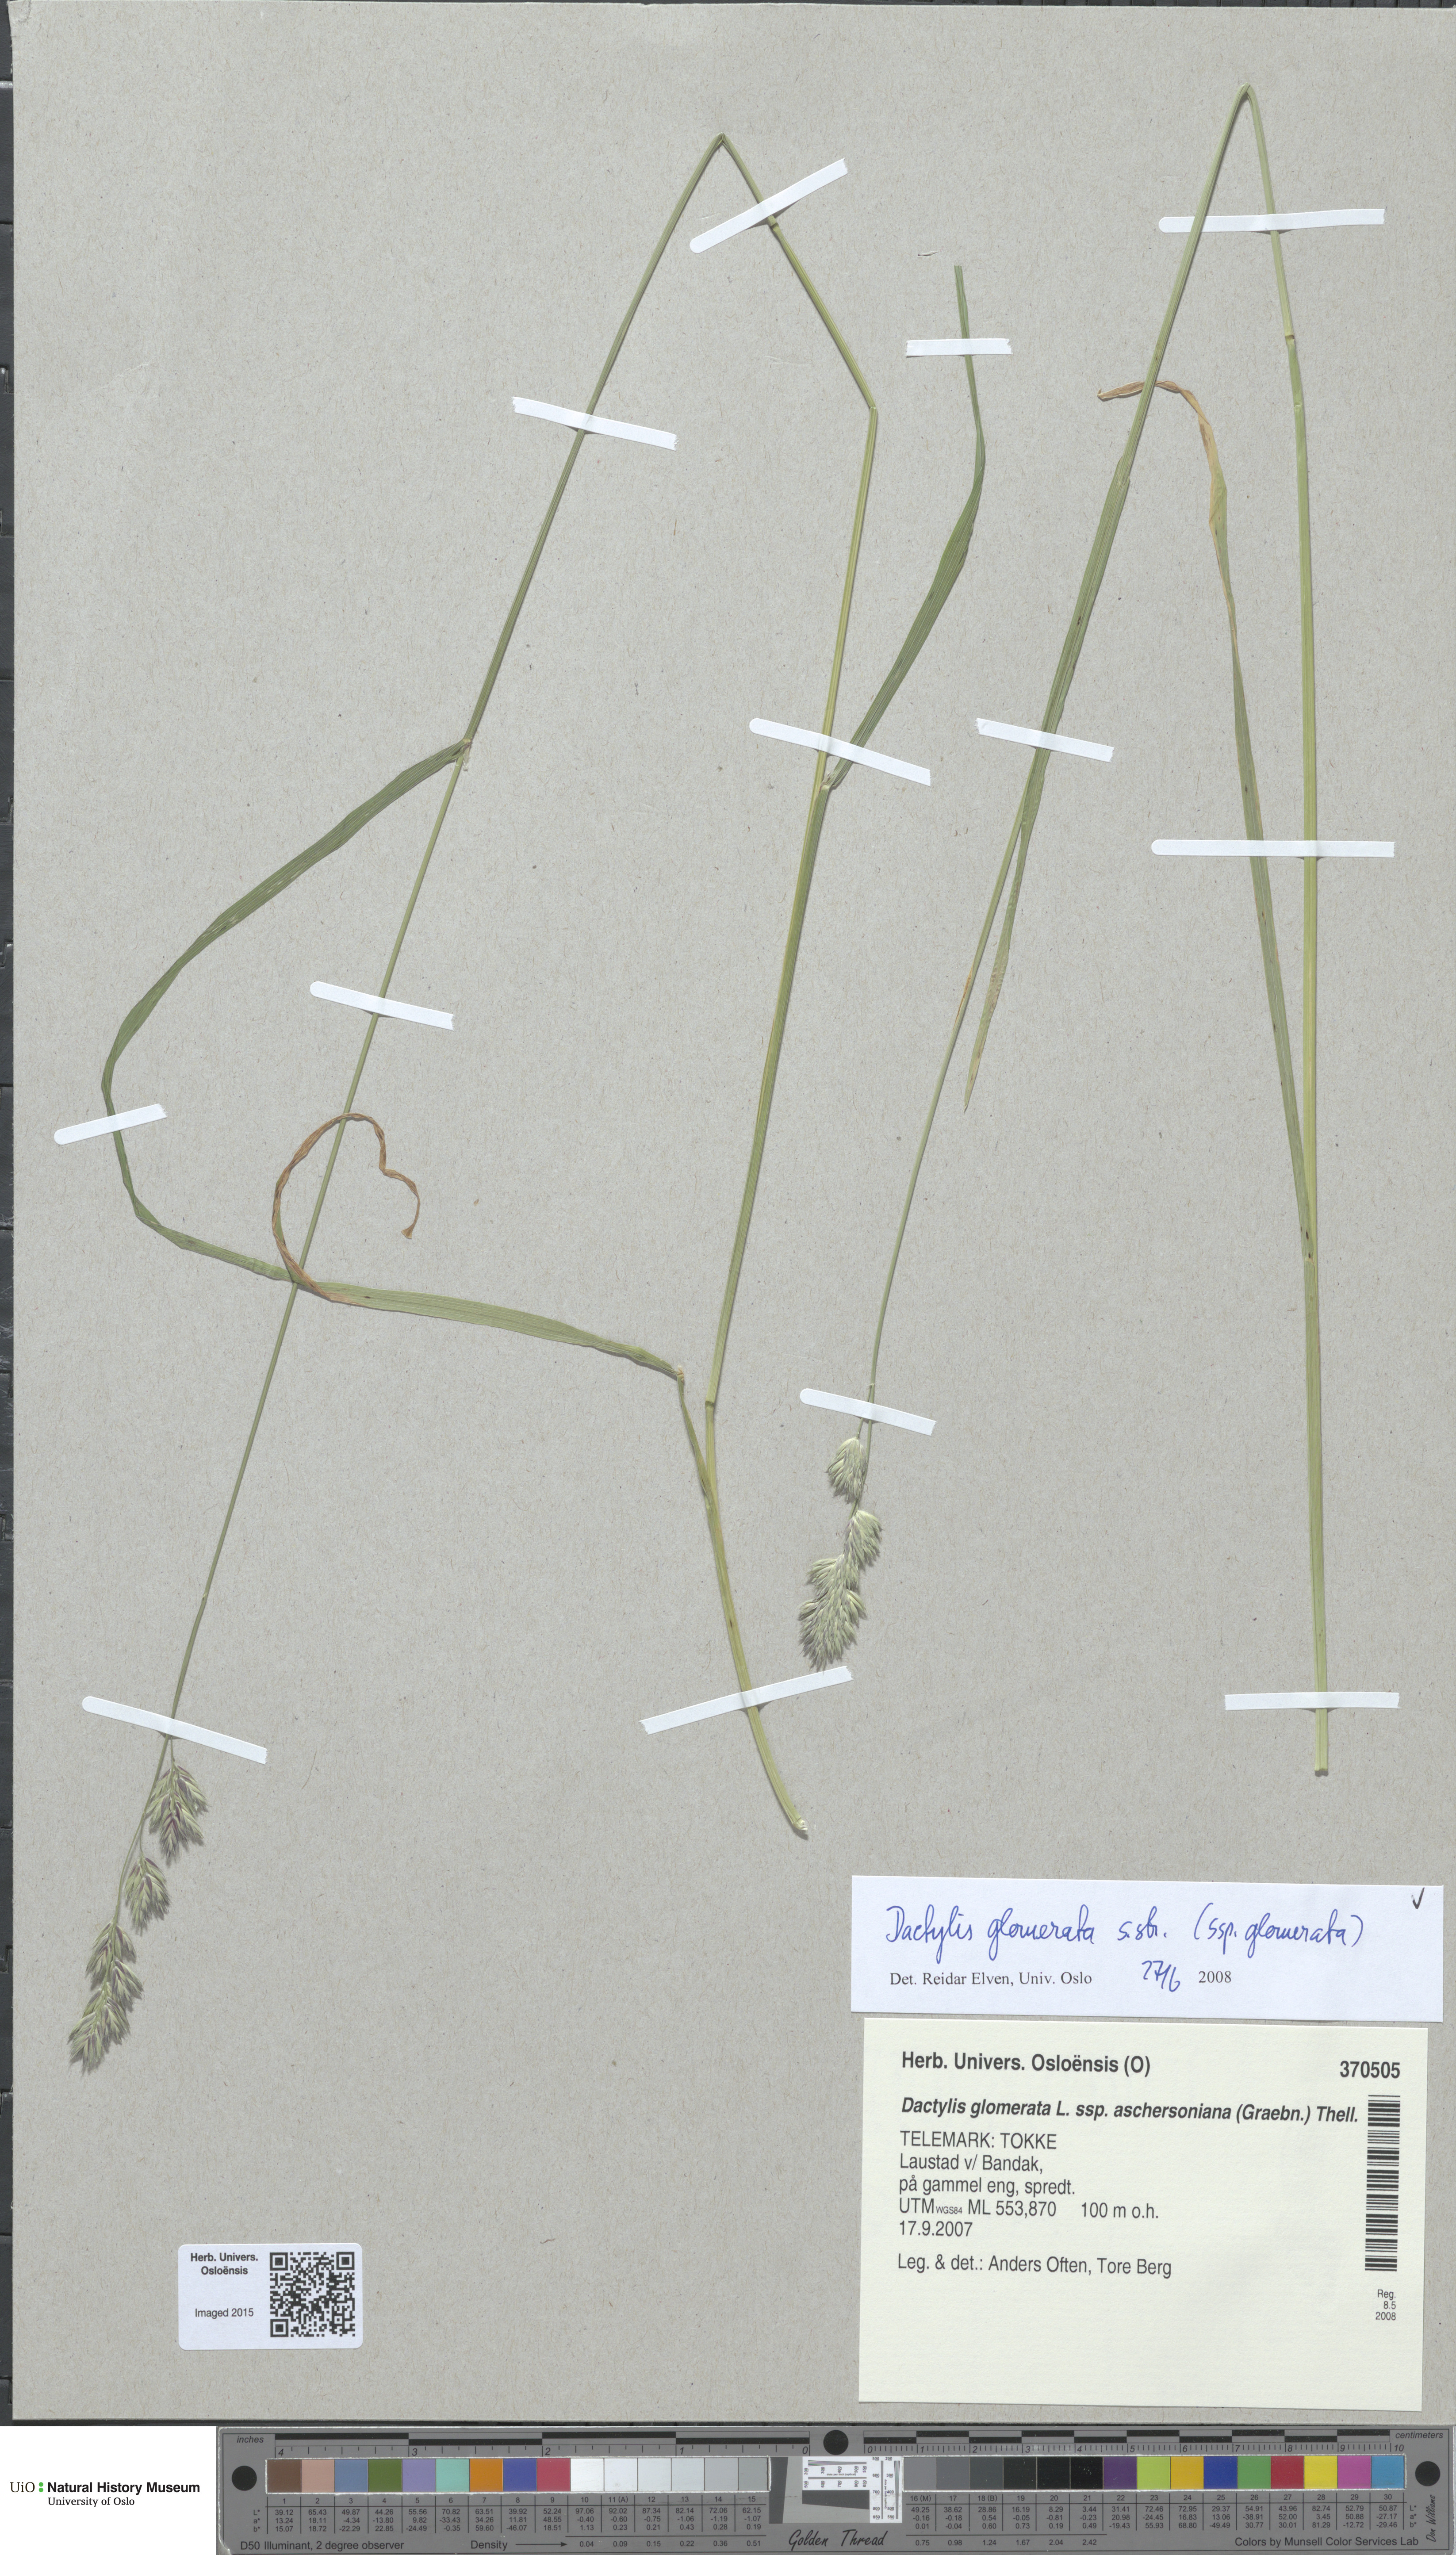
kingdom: Plantae
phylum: Tracheophyta
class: Liliopsida
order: Poales
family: Poaceae
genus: Dactylis
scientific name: Dactylis glomerata
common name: Orchardgrass
